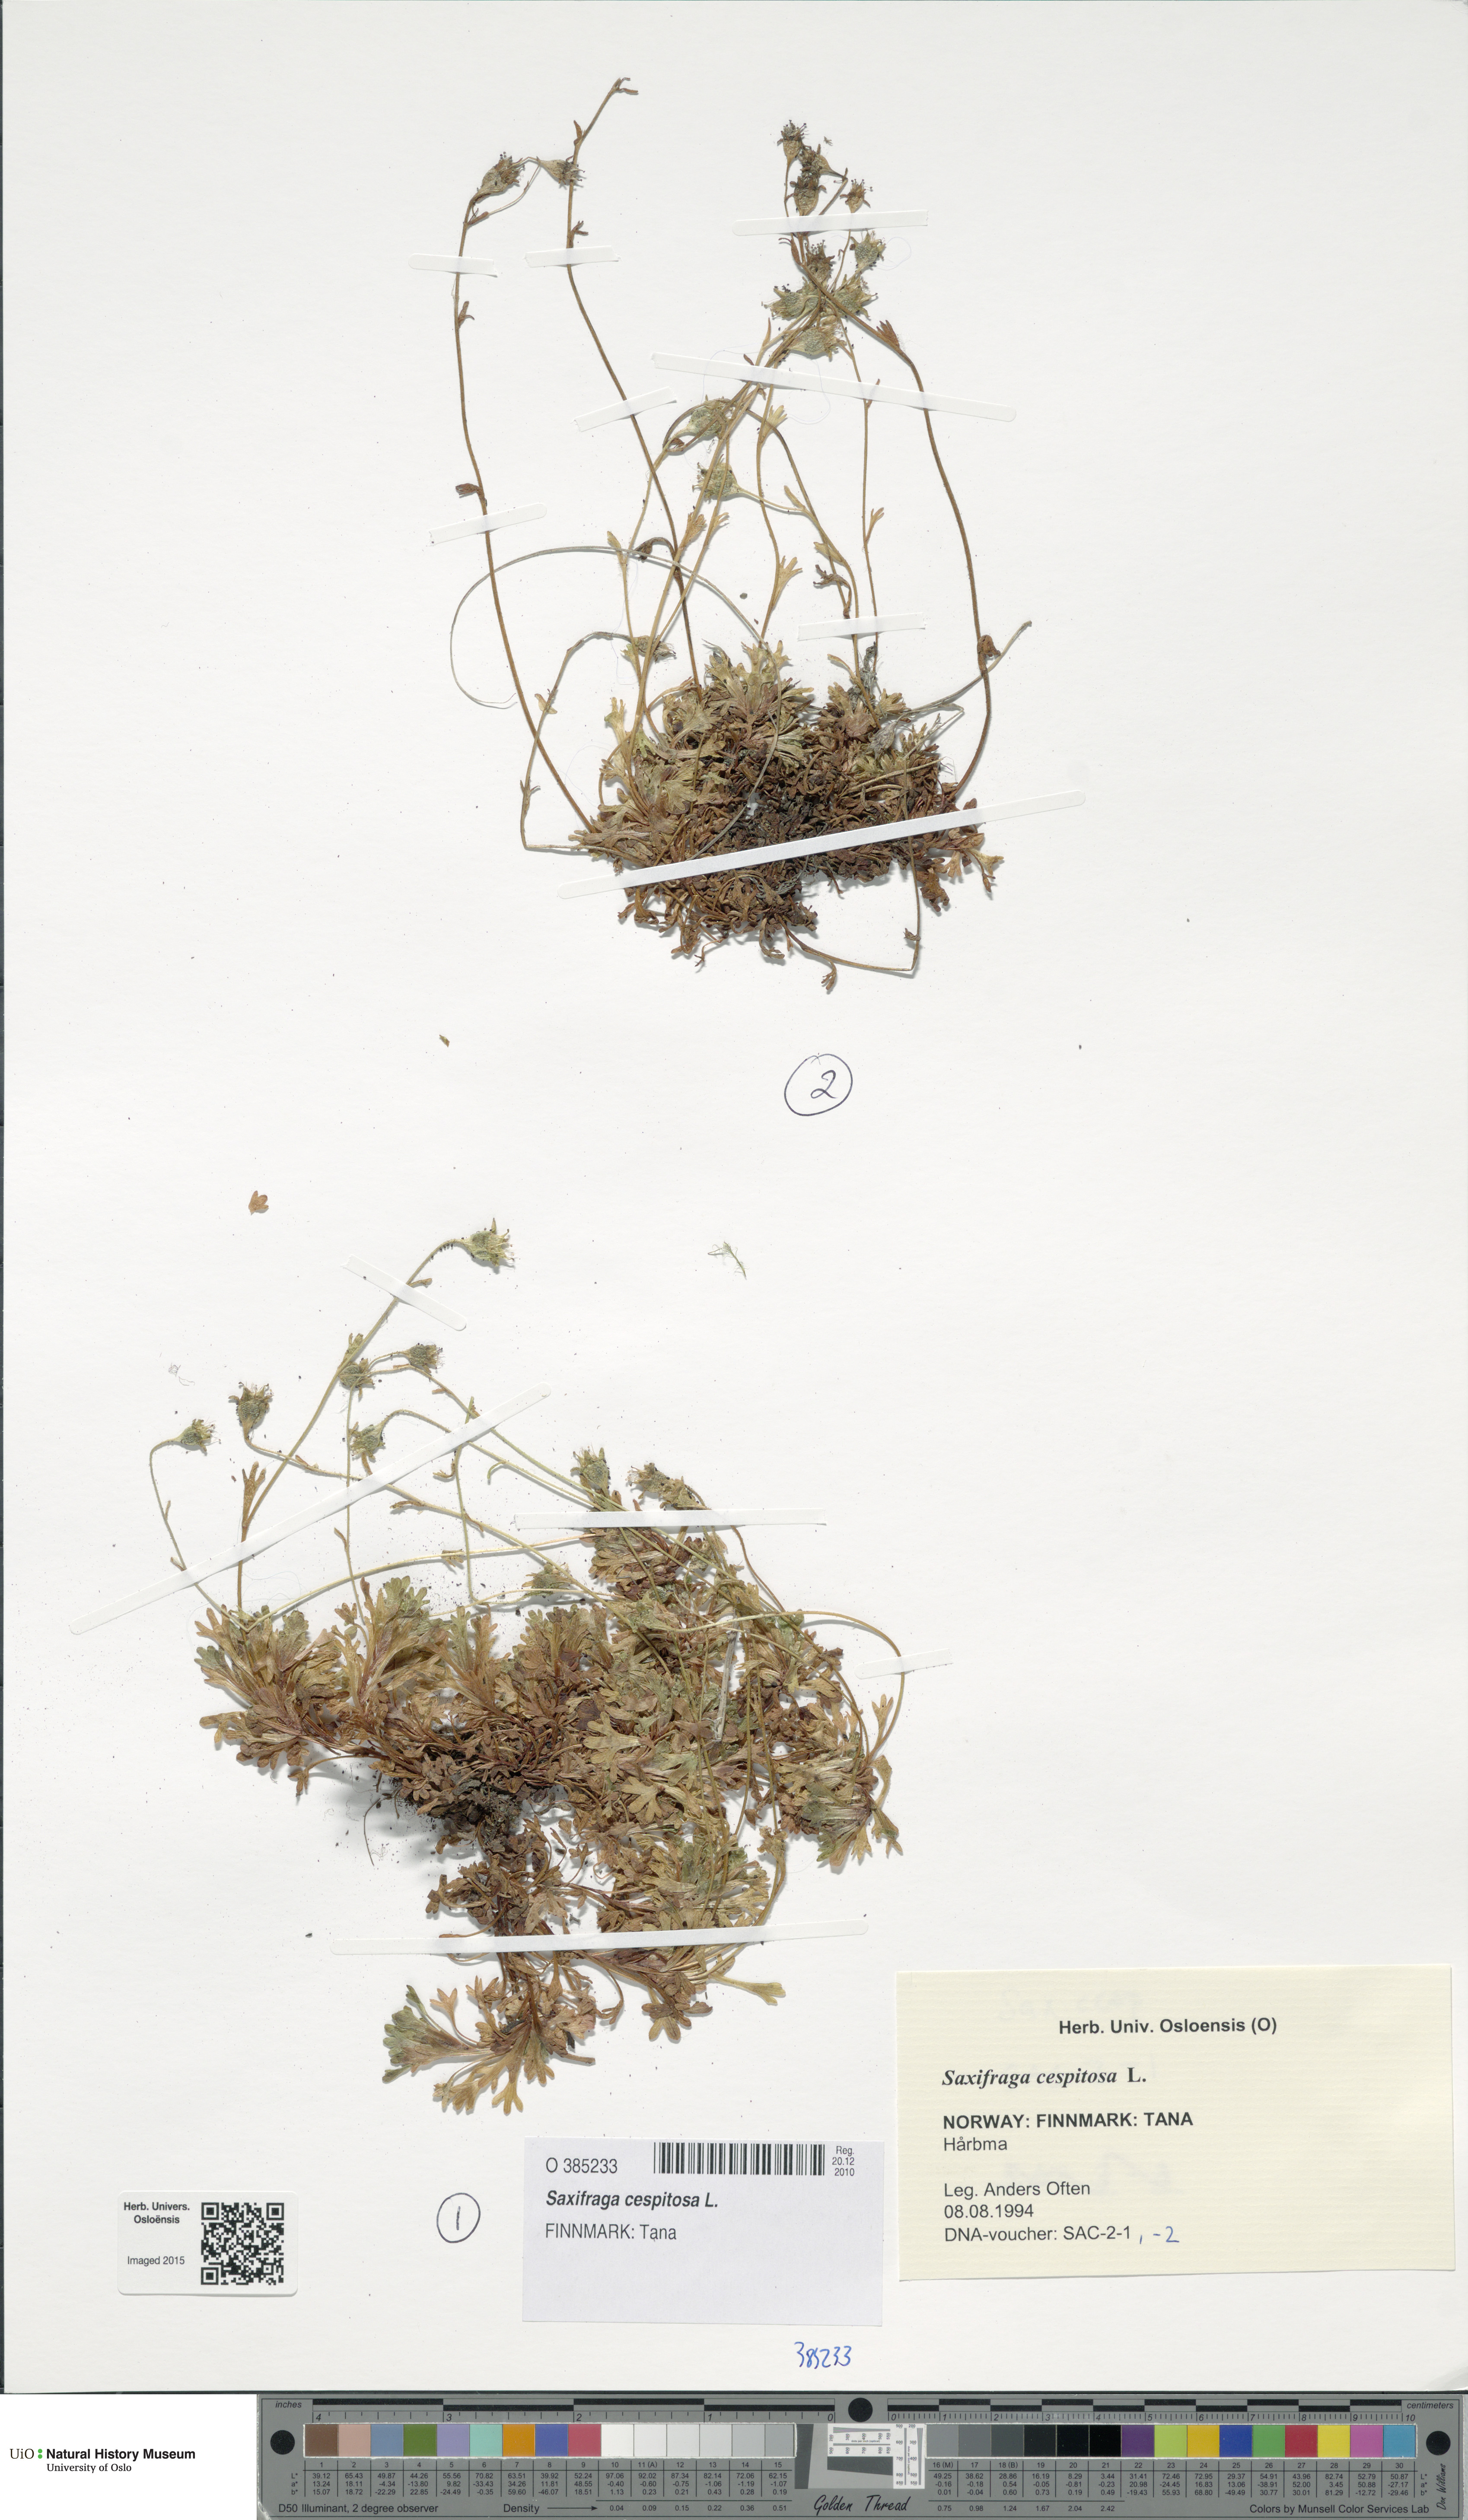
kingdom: Plantae
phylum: Tracheophyta
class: Magnoliopsida
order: Saxifragales
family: Saxifragaceae
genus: Saxifraga
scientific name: Saxifraga cespitosa
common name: Tufted saxifrage
